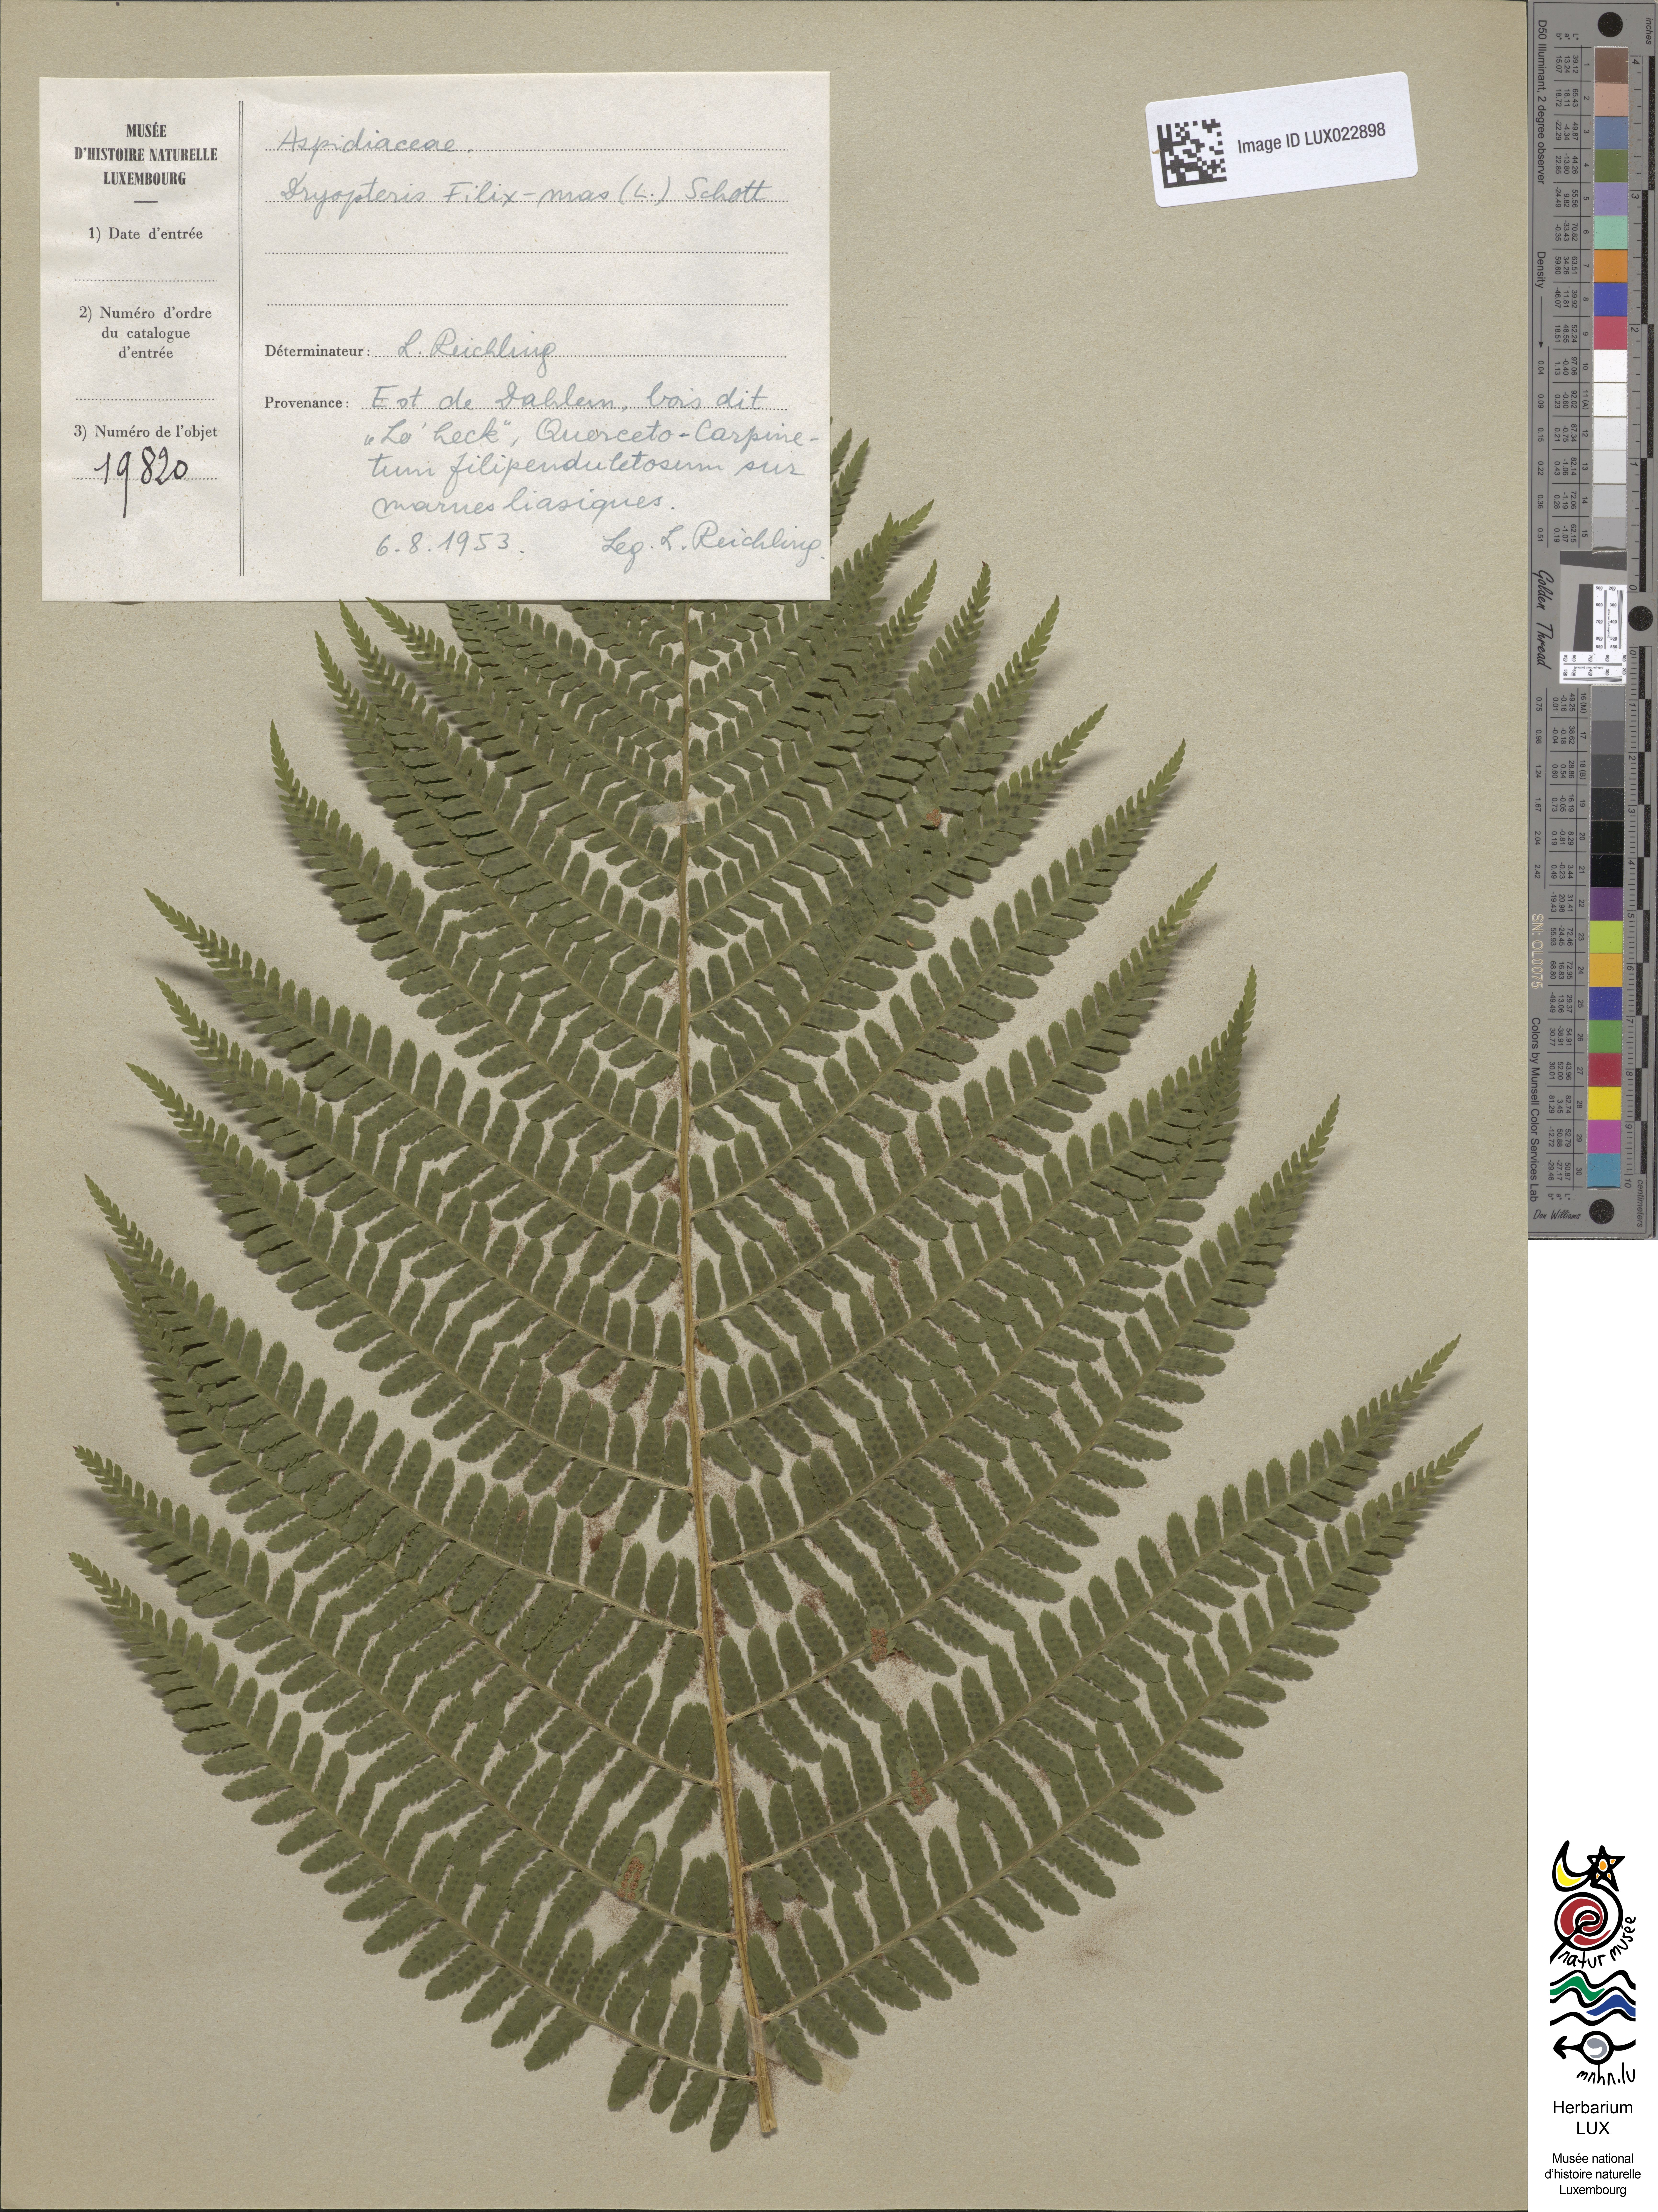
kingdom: Plantae
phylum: Tracheophyta
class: Polypodiopsida
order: Polypodiales
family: Dryopteridaceae
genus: Dryopteris
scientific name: Dryopteris filix-mas
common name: Male fern
